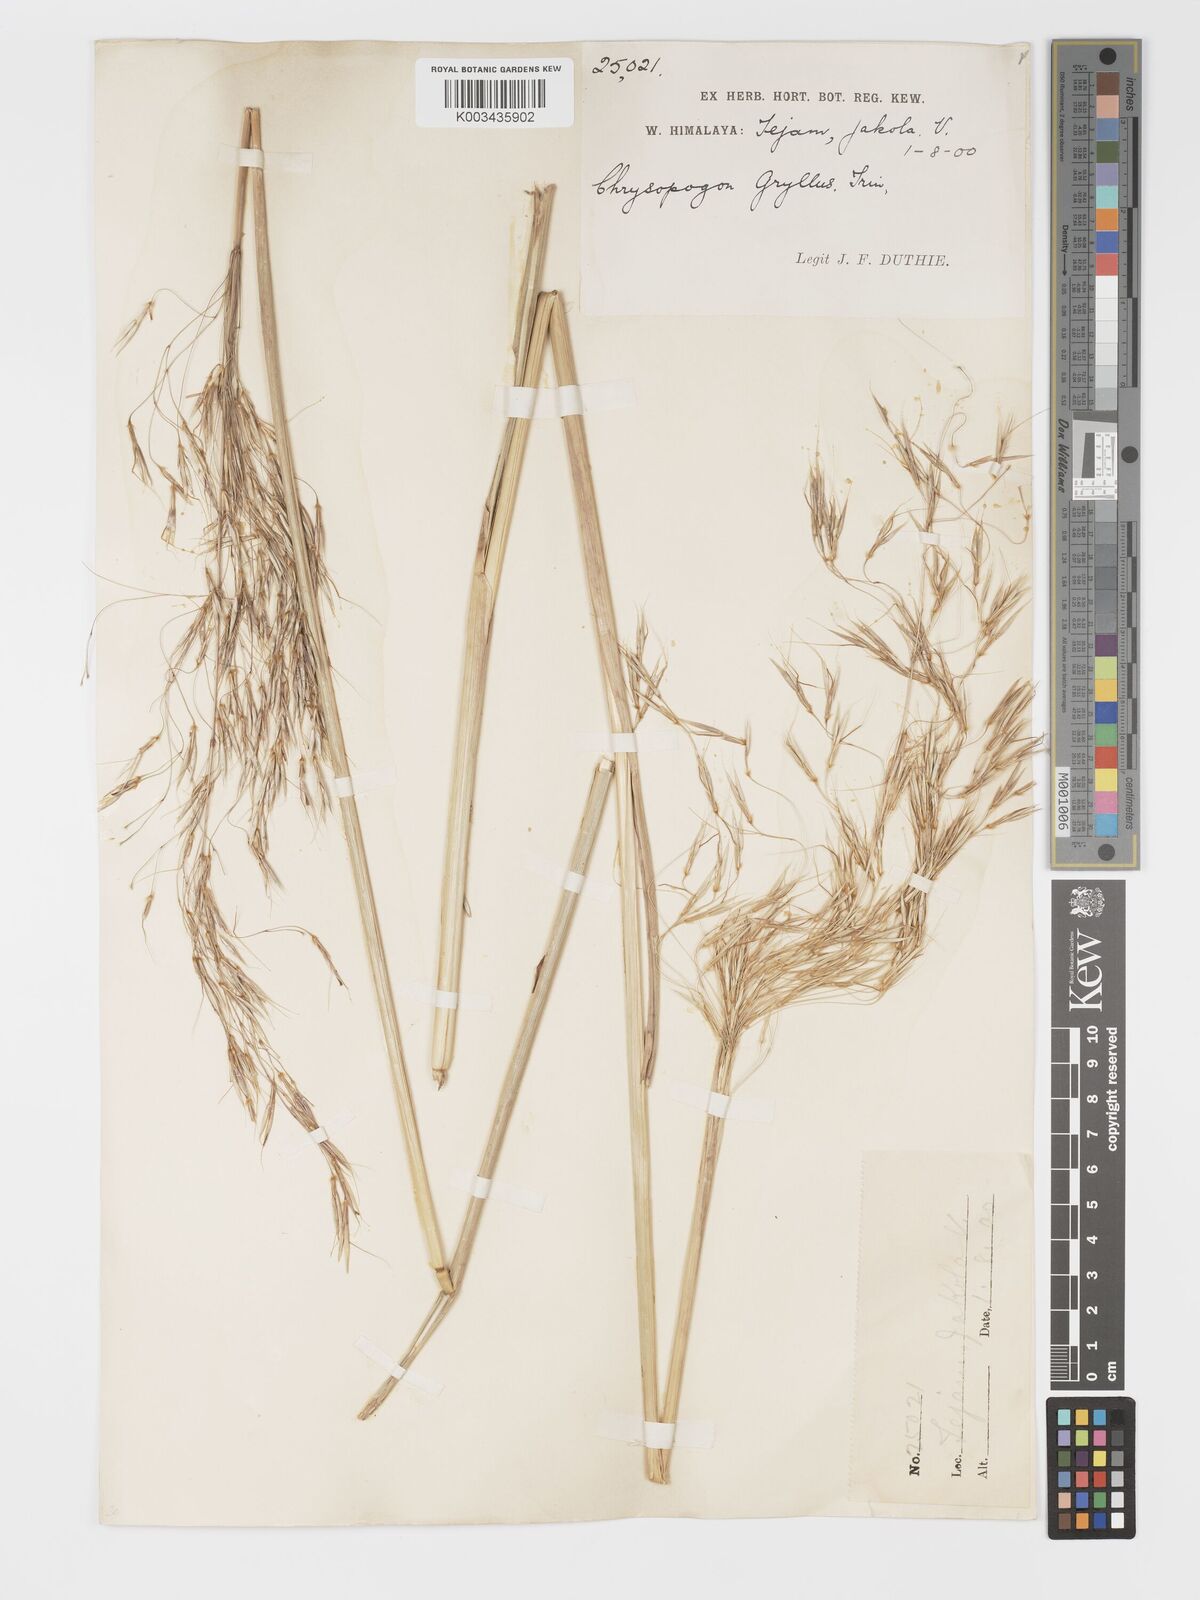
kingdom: Plantae
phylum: Tracheophyta
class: Liliopsida
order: Poales
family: Poaceae
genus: Chrysopogon
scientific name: Chrysopogon gryllus
